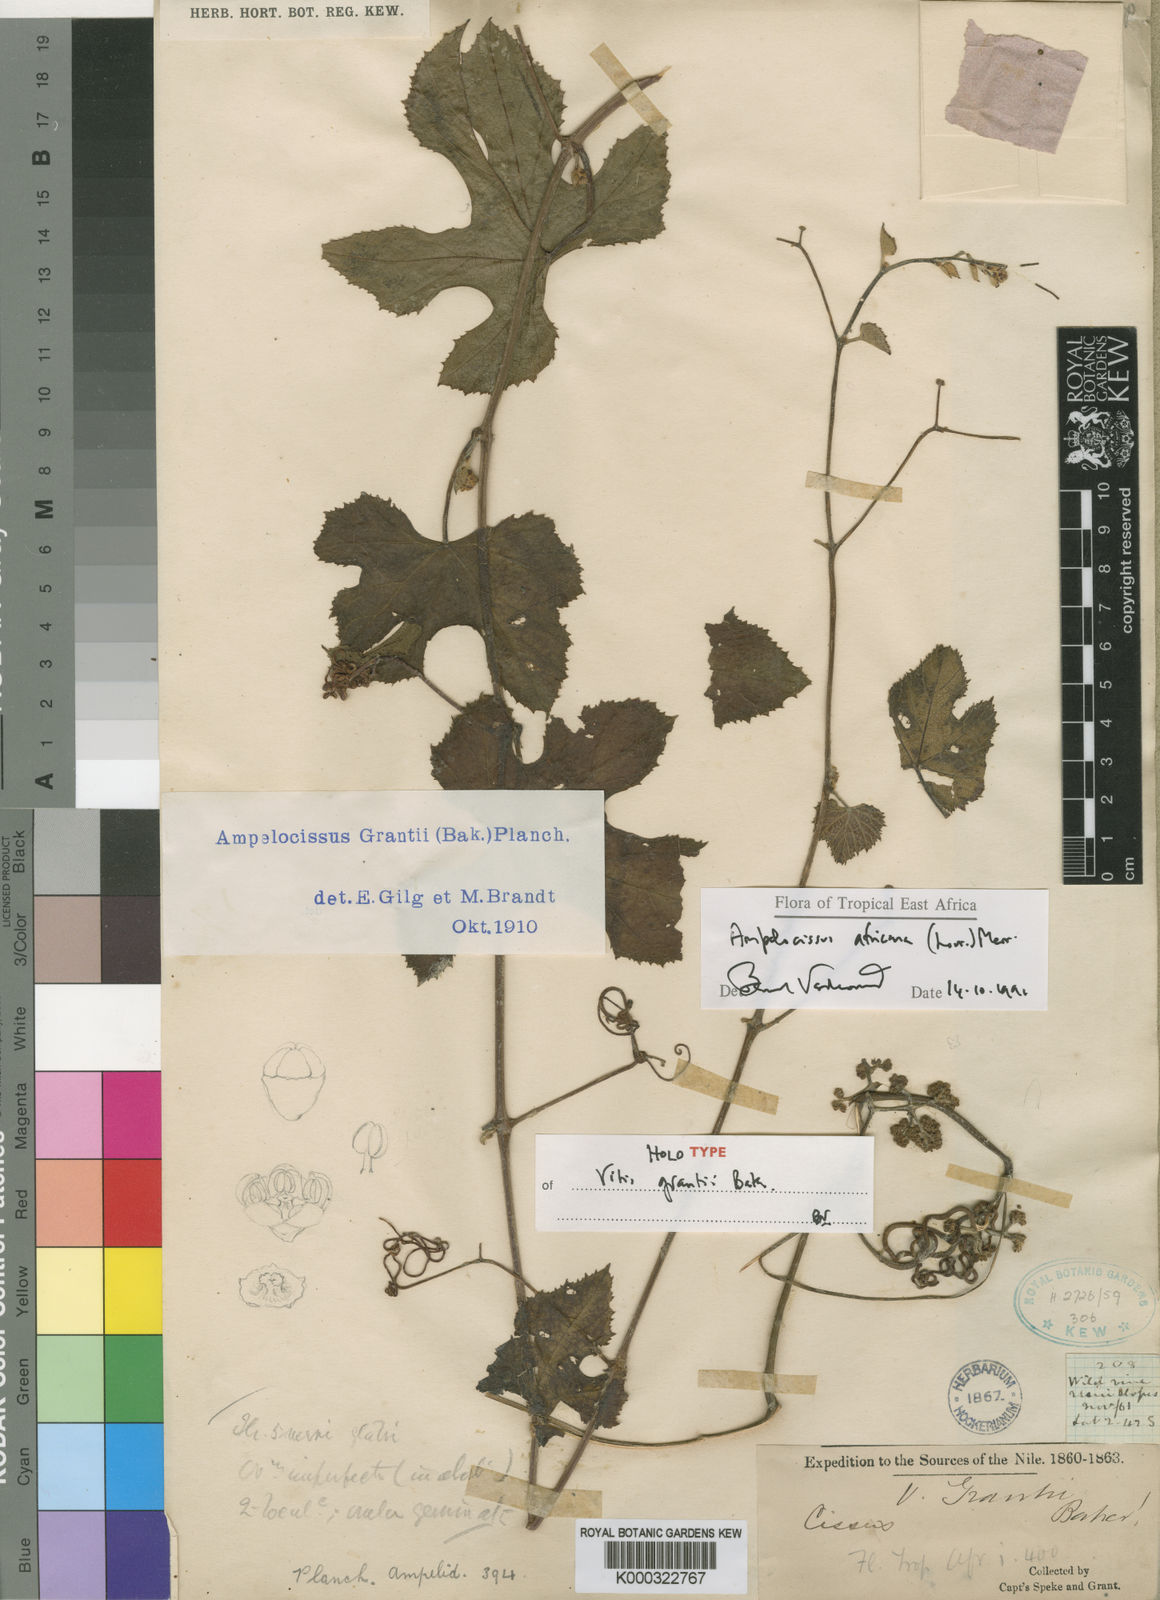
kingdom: Plantae
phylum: Tracheophyta
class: Magnoliopsida
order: Vitales
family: Vitaceae
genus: Ampelocissus
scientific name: Ampelocissus africana
